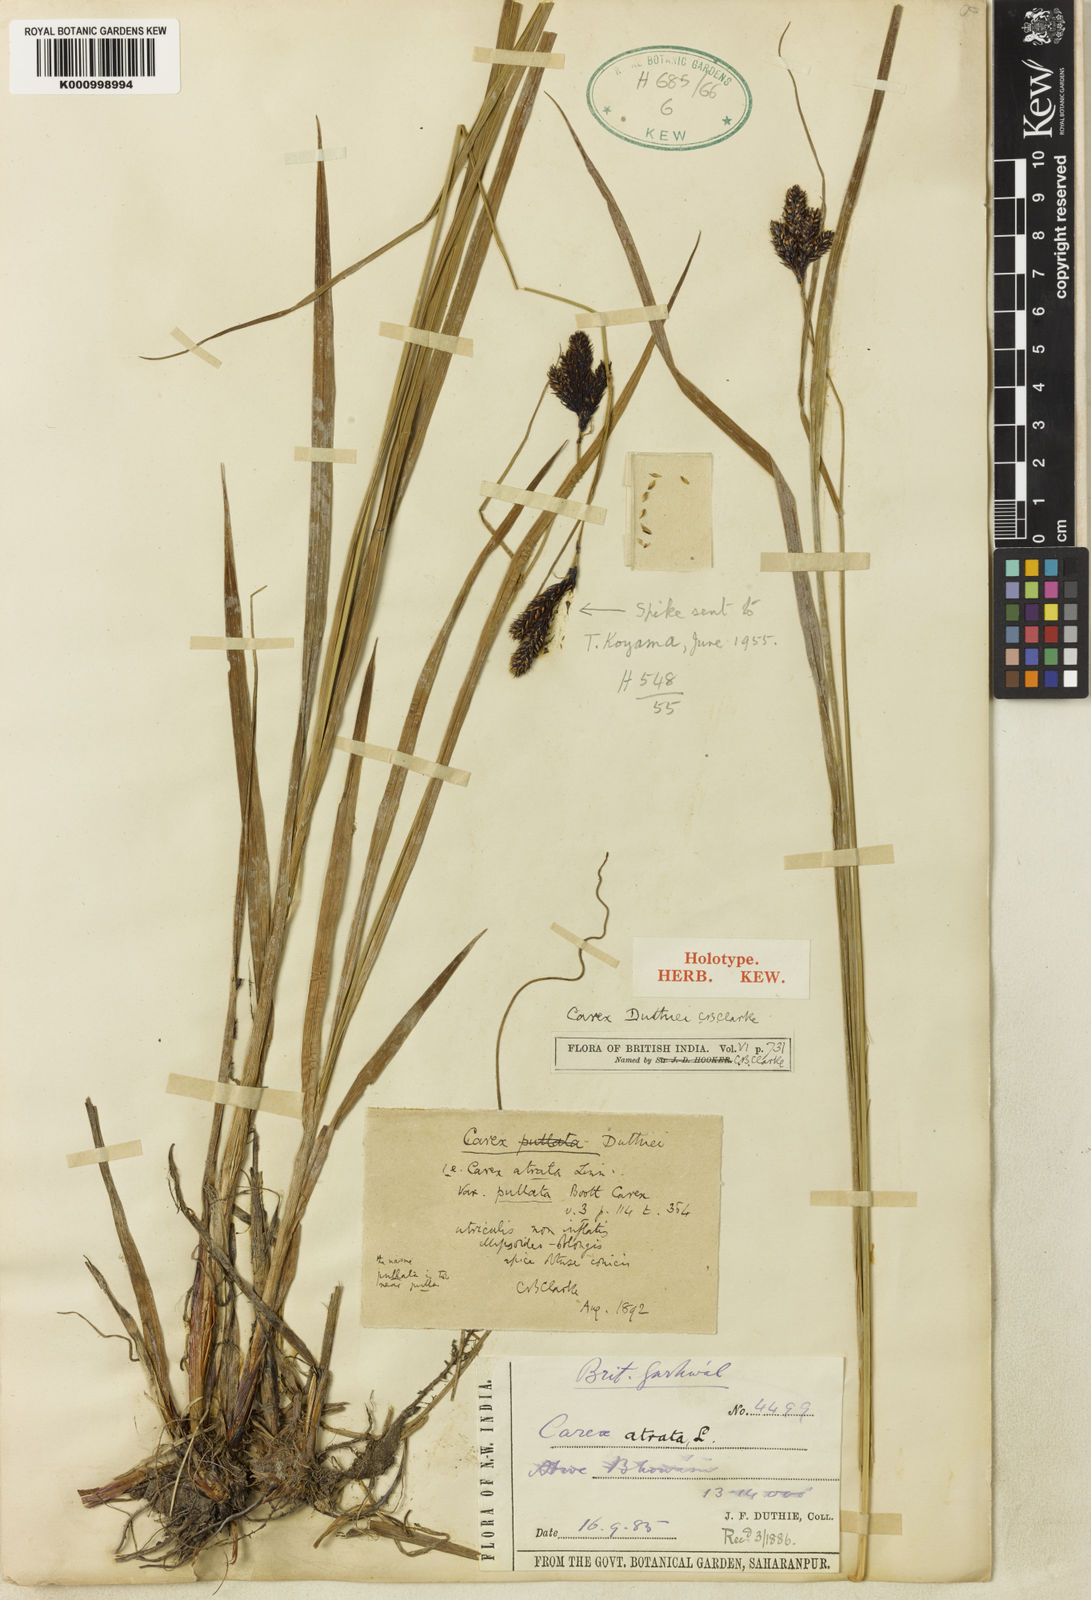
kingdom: Plantae
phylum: Tracheophyta
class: Liliopsida
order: Poales
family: Cyperaceae
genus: Carex
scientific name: Carex atrata
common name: Black alpine sedge
